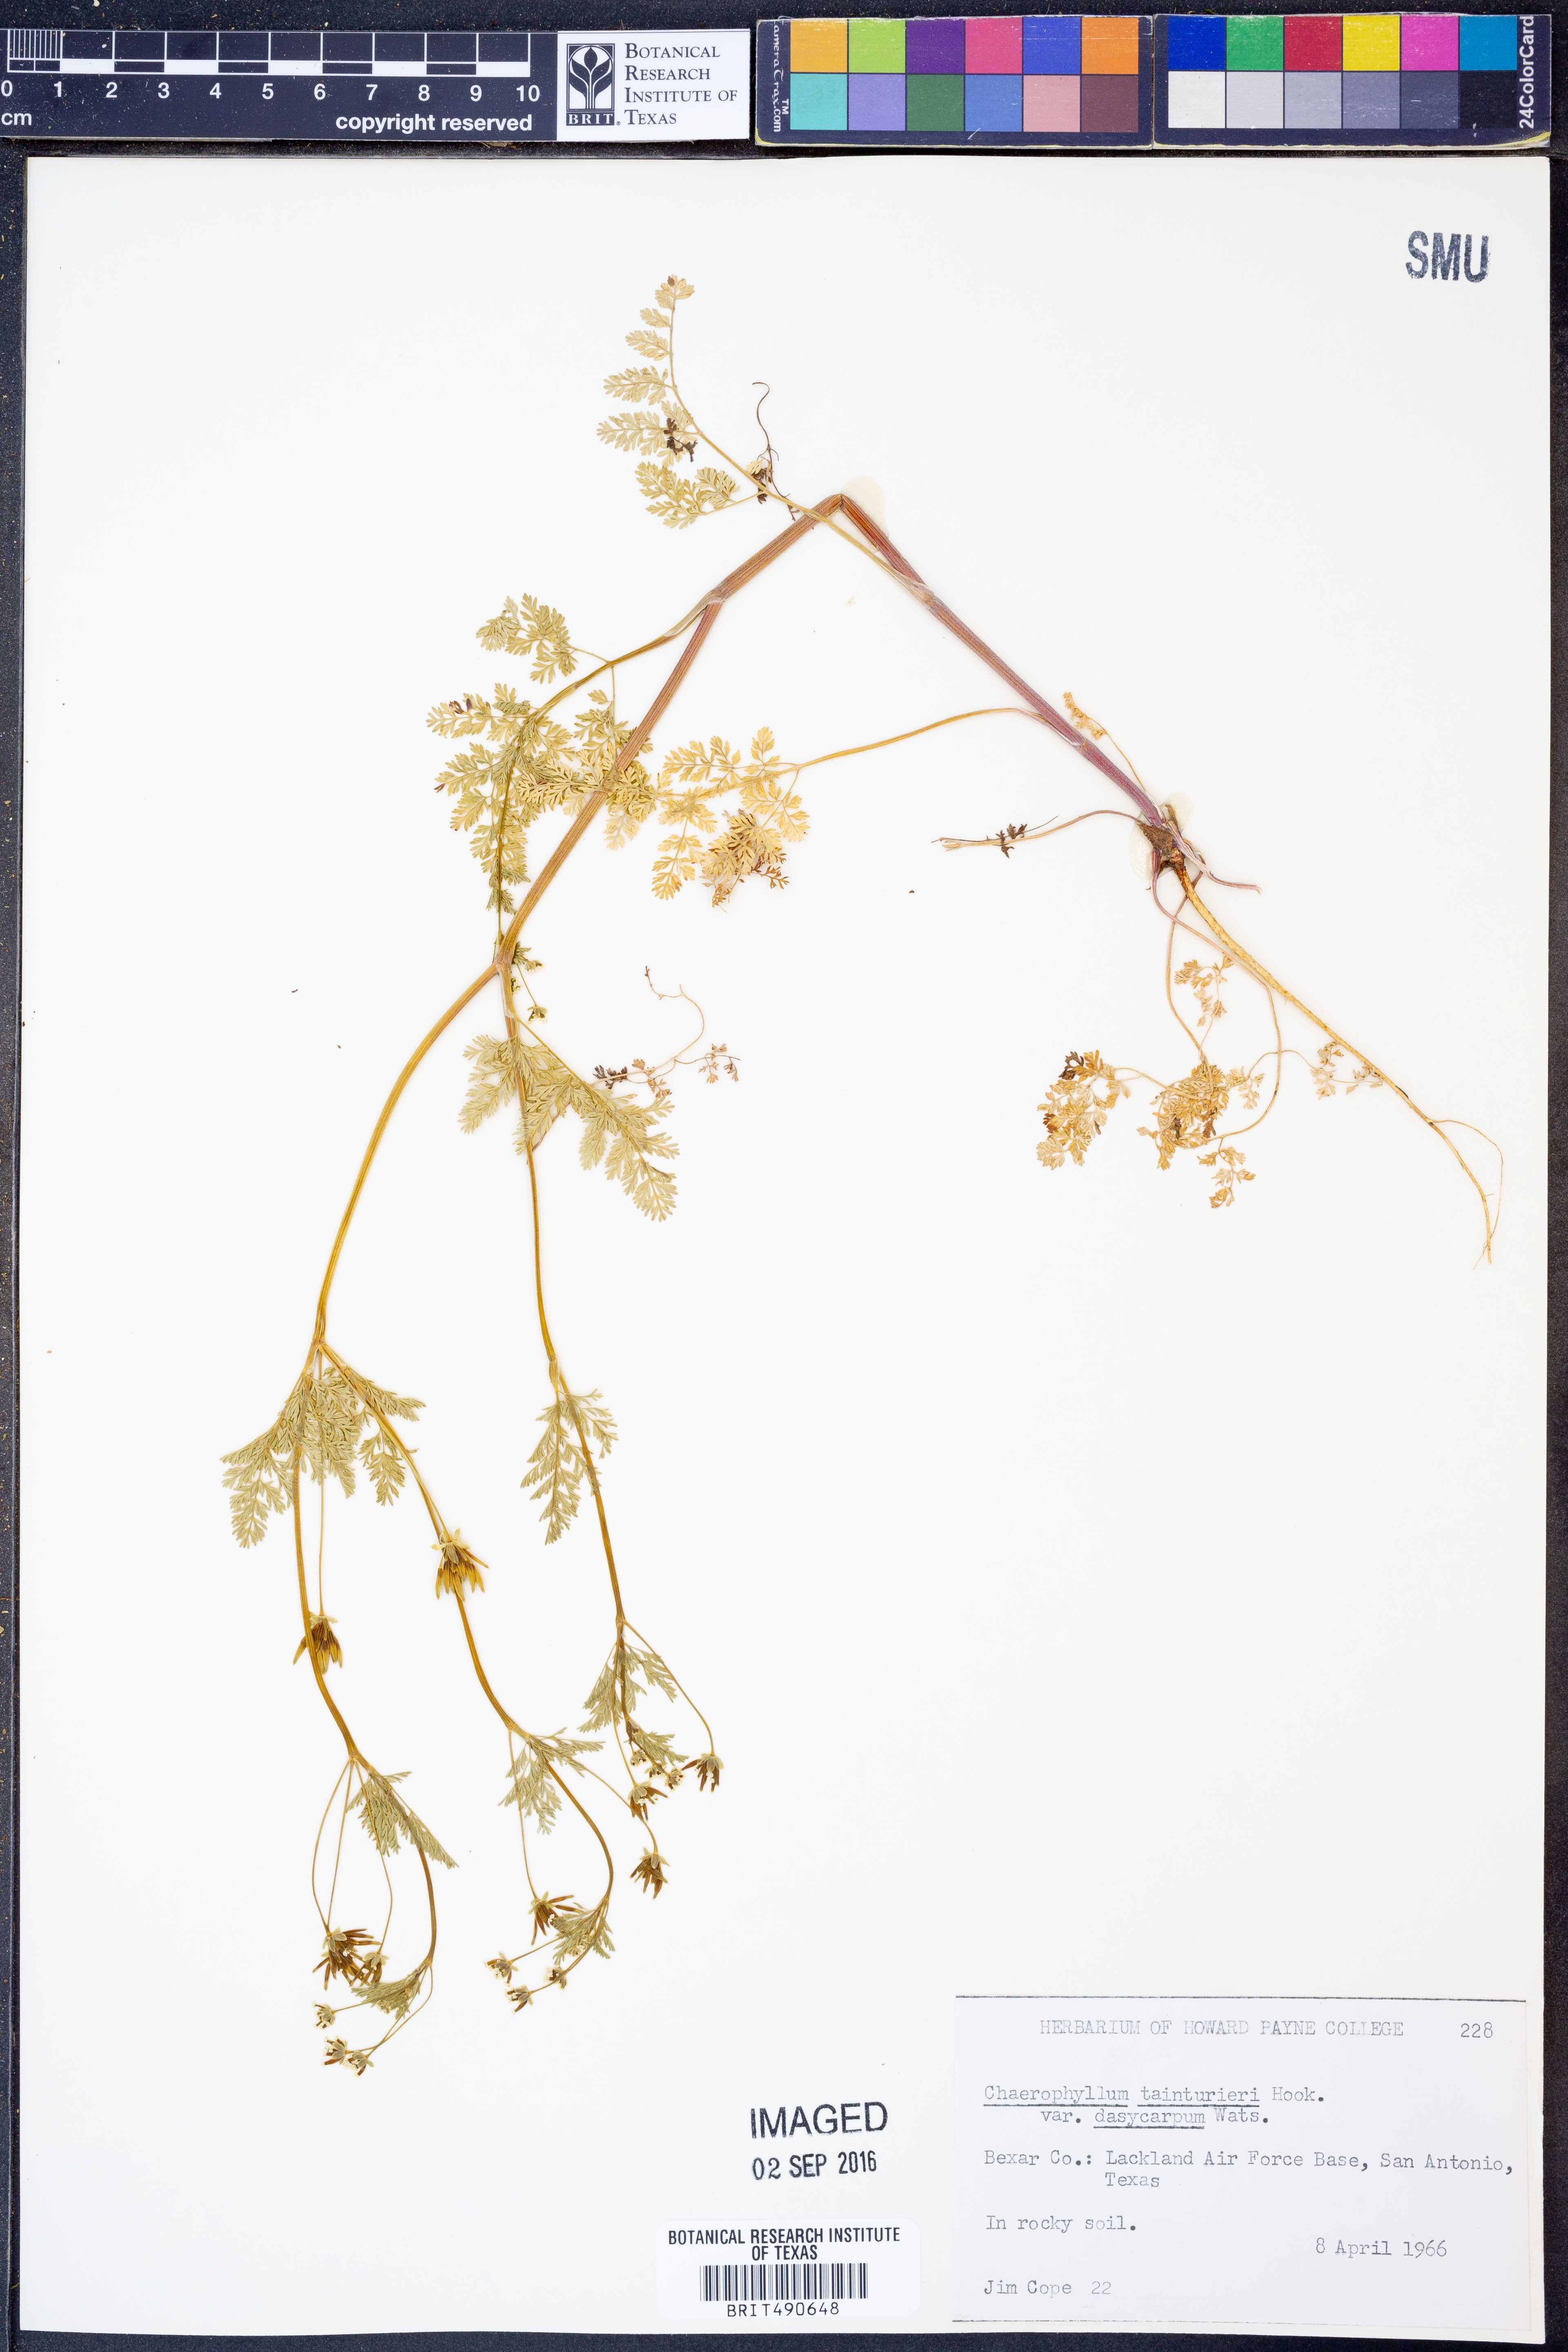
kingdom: Plantae
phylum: Tracheophyta
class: Magnoliopsida
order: Apiales
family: Apiaceae
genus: Chaerophyllum
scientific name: Chaerophyllum dasycarpum
